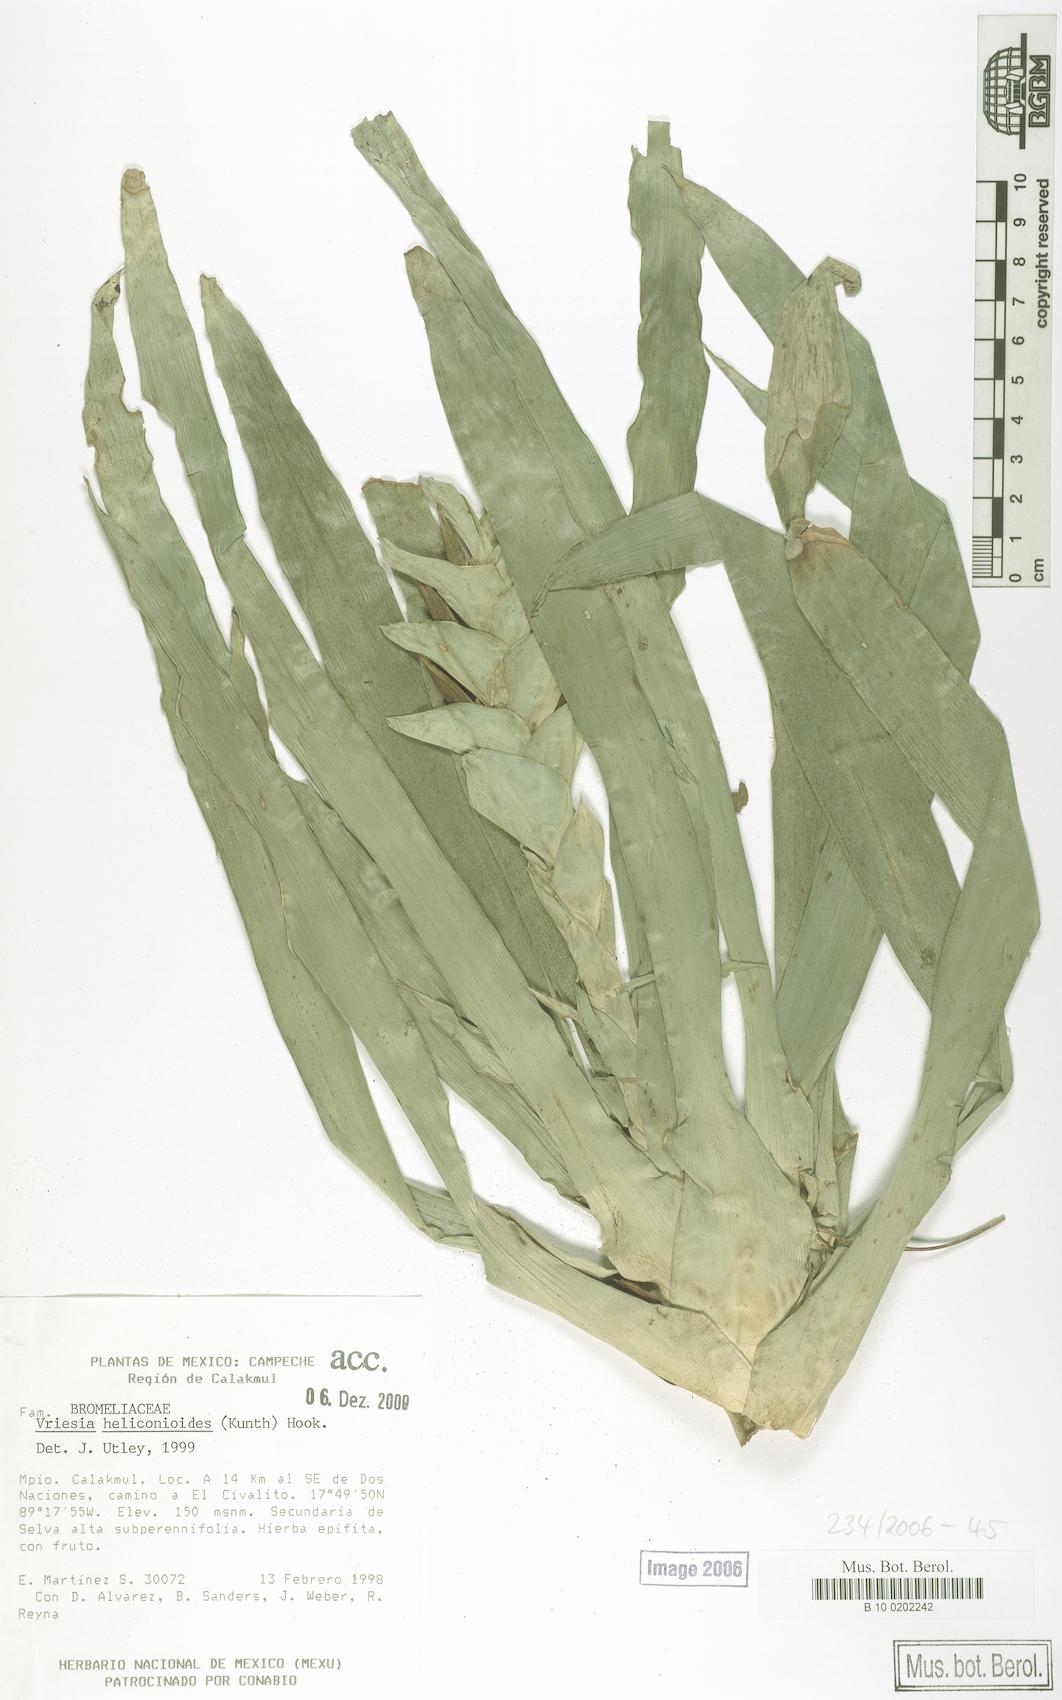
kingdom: Plantae
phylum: Tracheophyta
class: Liliopsida
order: Poales
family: Bromeliaceae
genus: Vriesea
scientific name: Vriesea heliconioides
